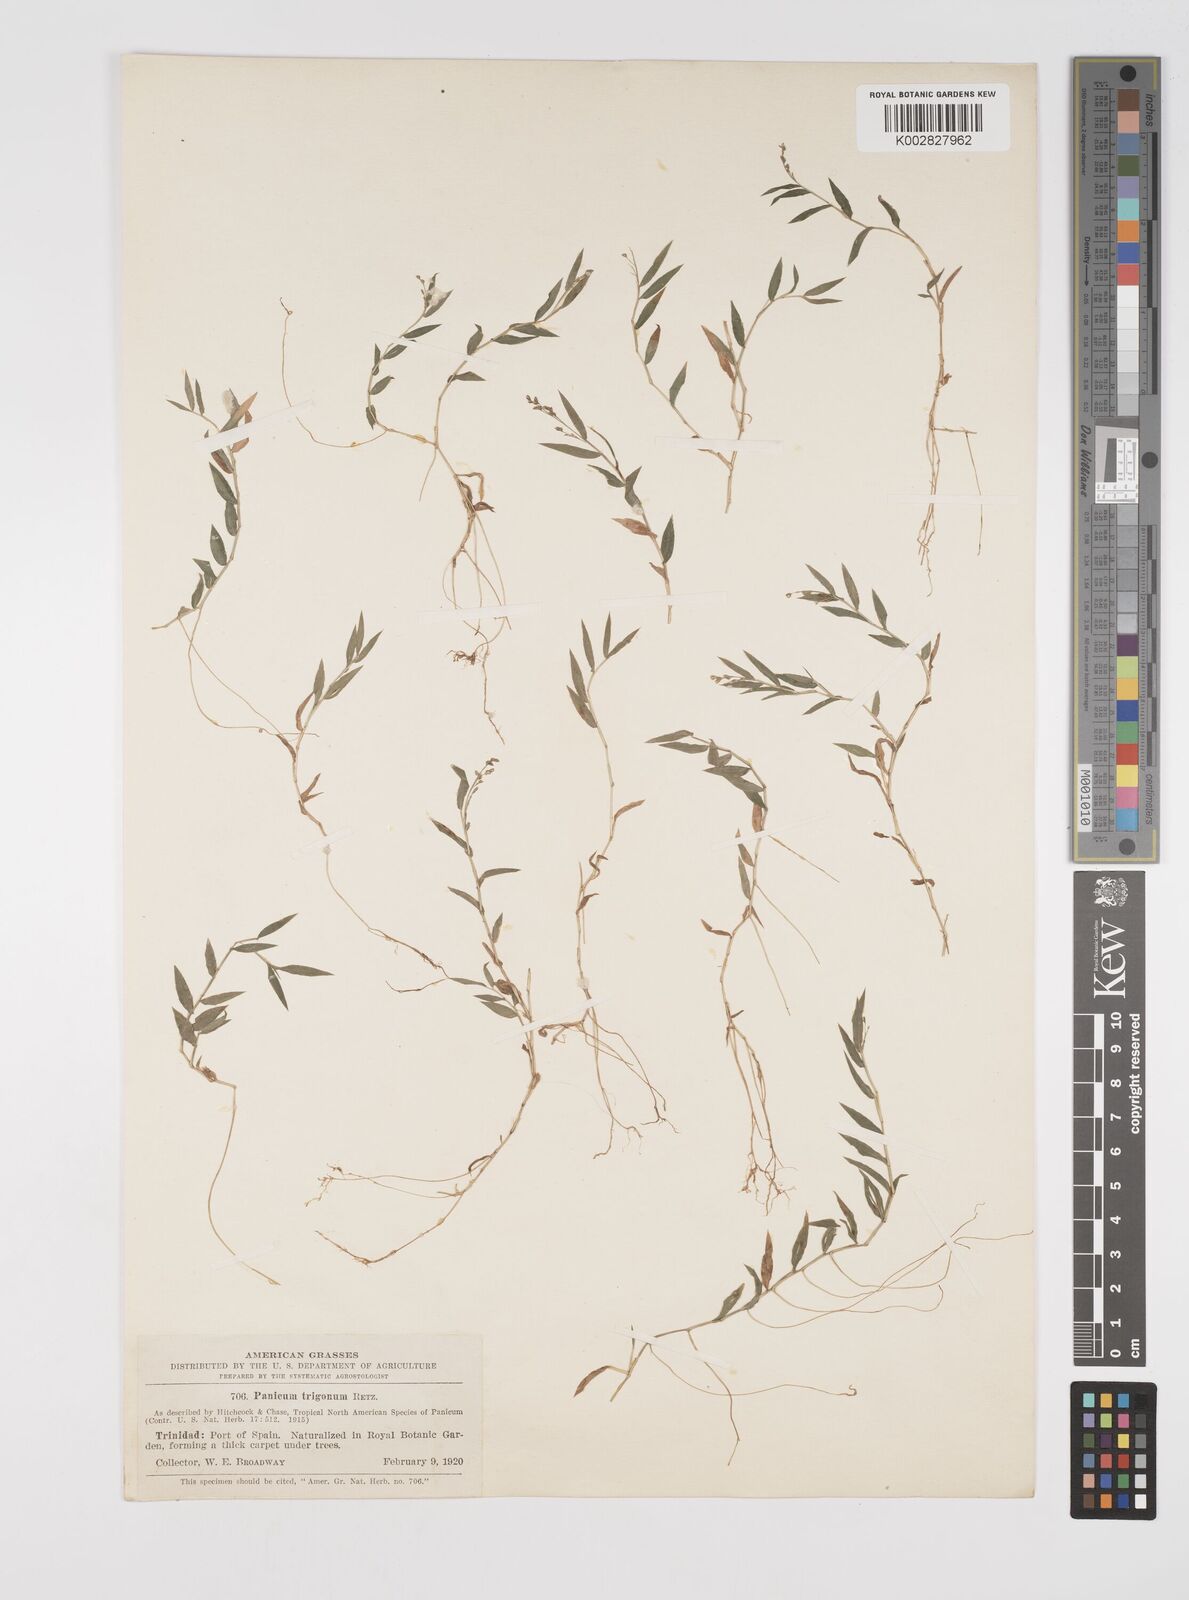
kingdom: Plantae
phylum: Tracheophyta
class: Liliopsida
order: Poales
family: Poaceae
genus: Cyrtococcum
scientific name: Cyrtococcum trigonum
